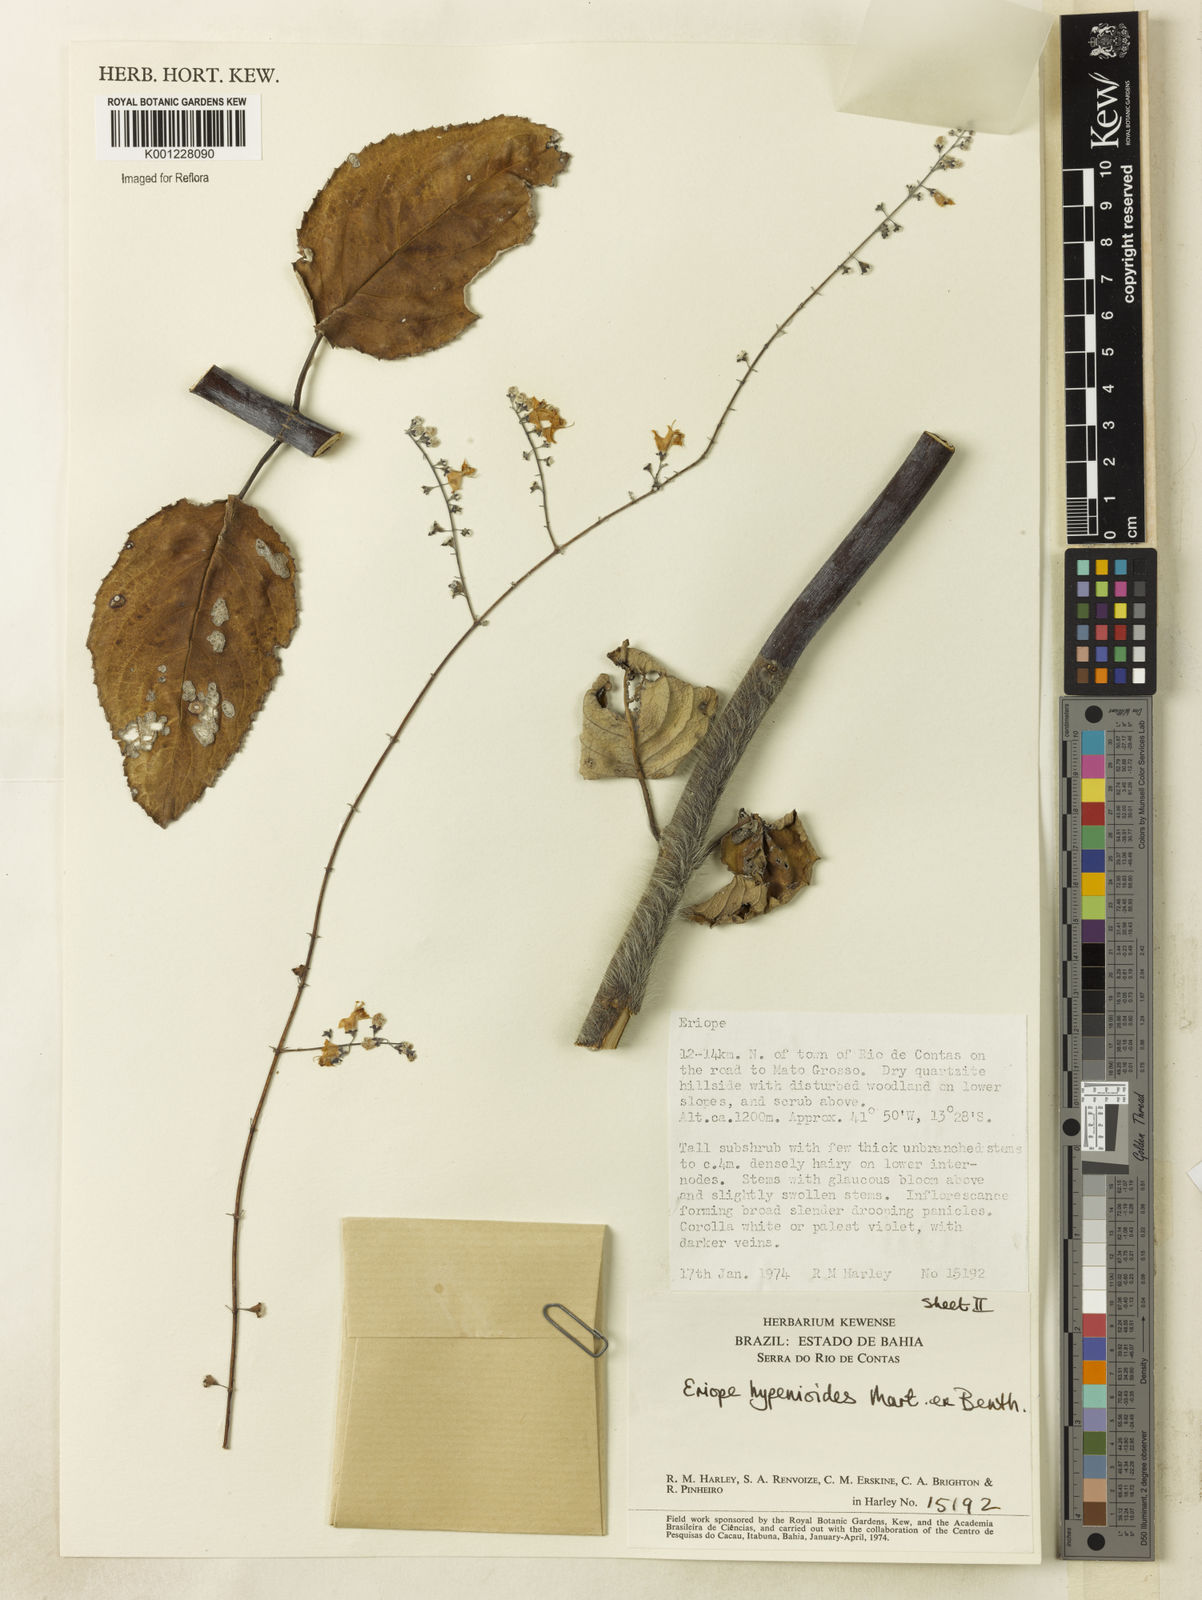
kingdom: Plantae
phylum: Tracheophyta
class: Magnoliopsida
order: Lamiales
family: Lamiaceae
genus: Eriope
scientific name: Eriope hypenioides
